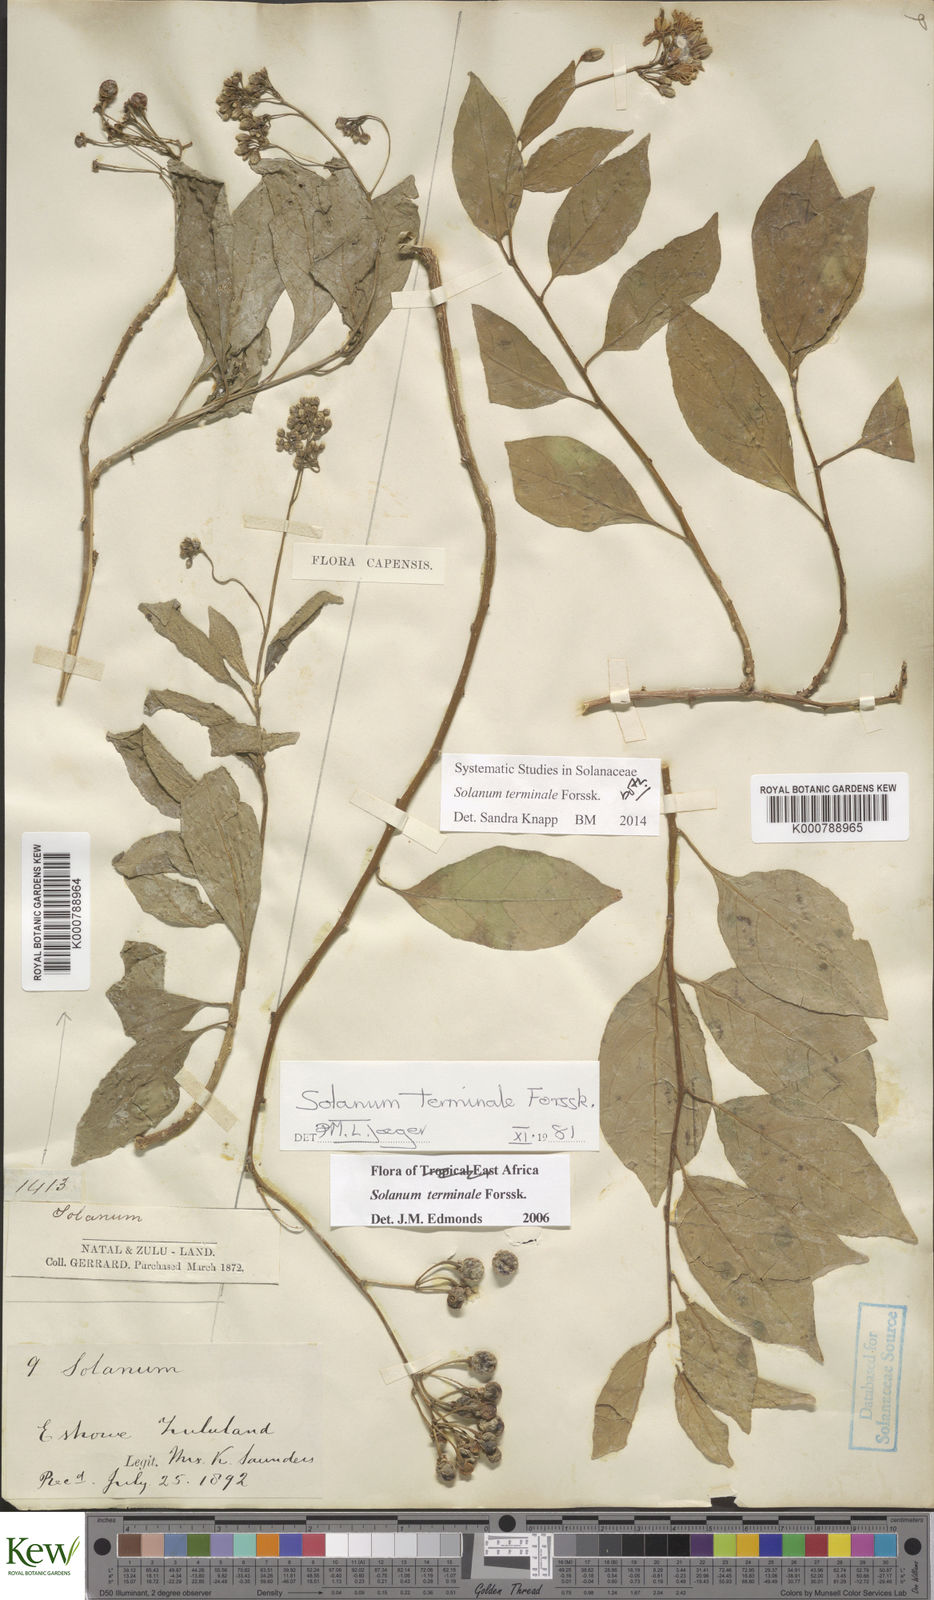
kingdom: Plantae
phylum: Tracheophyta
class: Magnoliopsida
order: Solanales
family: Solanaceae
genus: Solanum
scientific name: Solanum terminale
